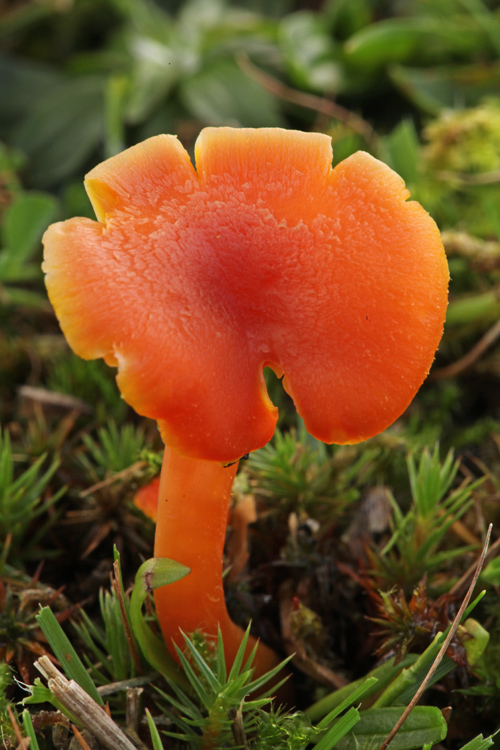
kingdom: Fungi
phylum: Basidiomycota
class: Agaricomycetes
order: Agaricales
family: Hygrophoraceae
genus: Hygrocybe
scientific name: Hygrocybe miniata
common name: mønje-vokshat
